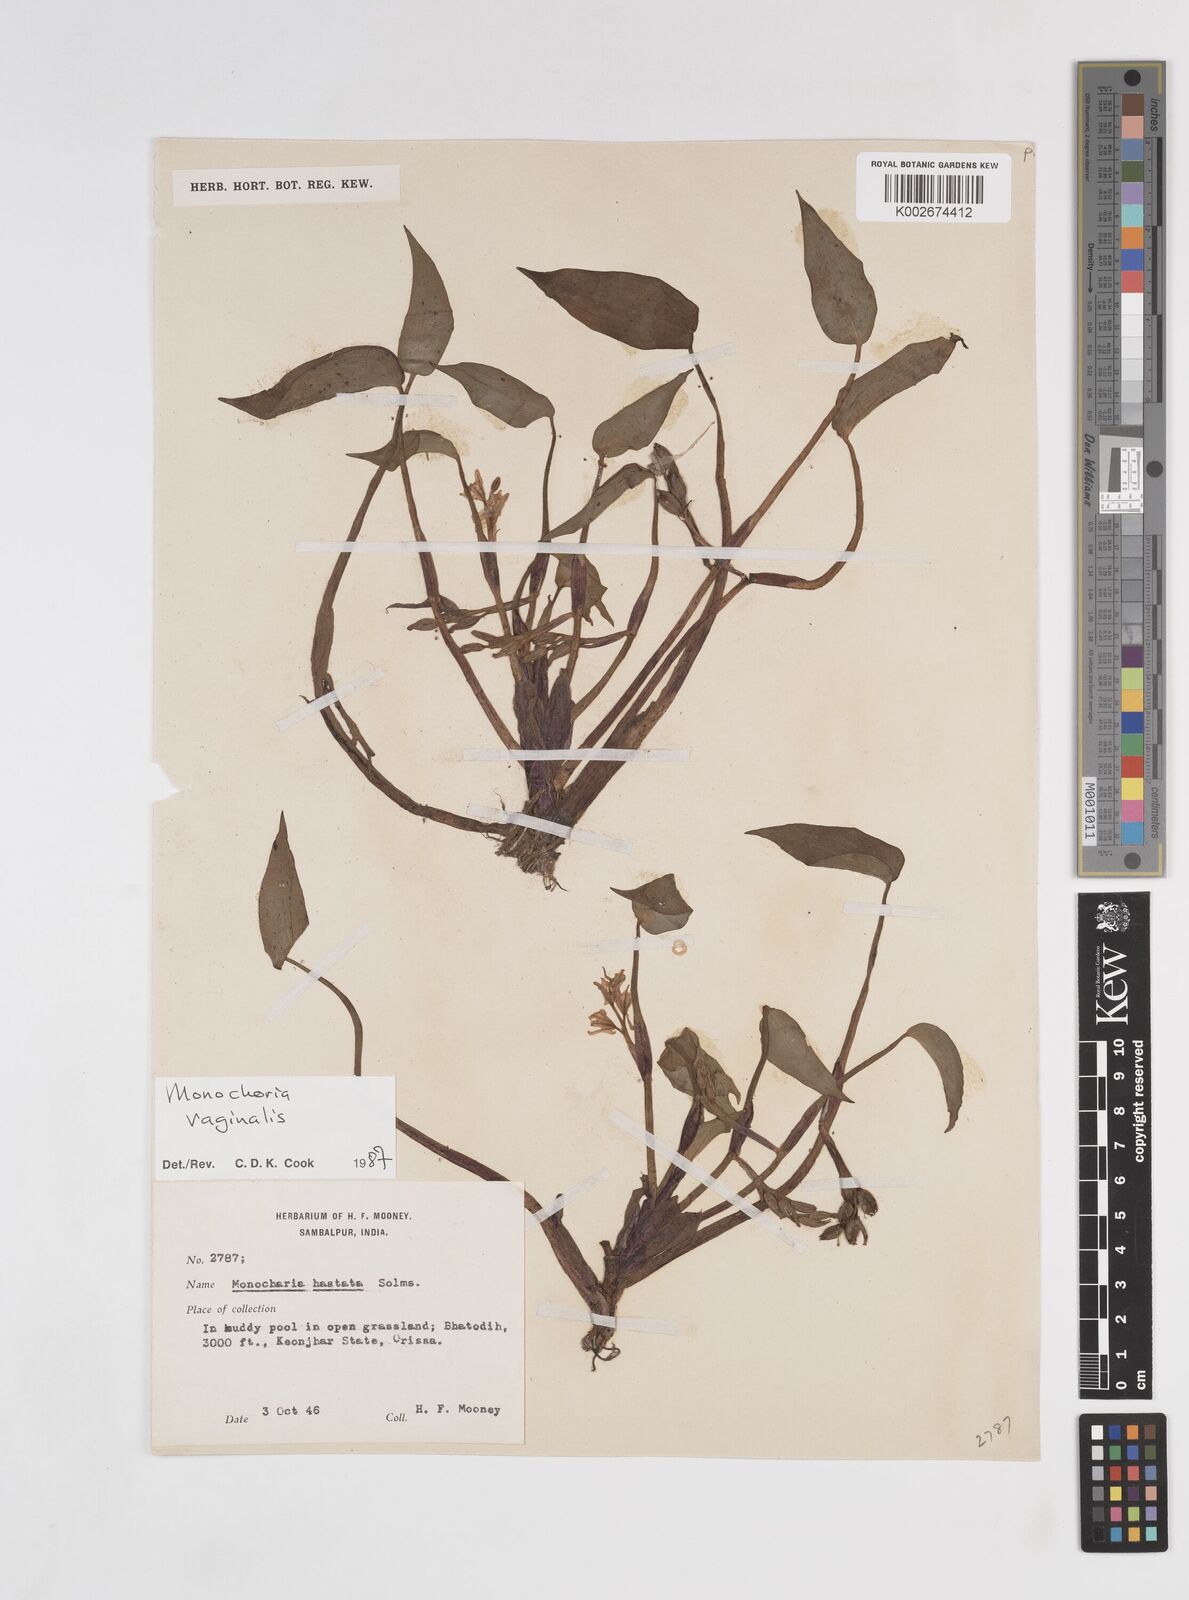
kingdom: Plantae
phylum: Tracheophyta
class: Liliopsida
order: Commelinales
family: Pontederiaceae
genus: Pontederia
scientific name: Pontederia vaginalis
